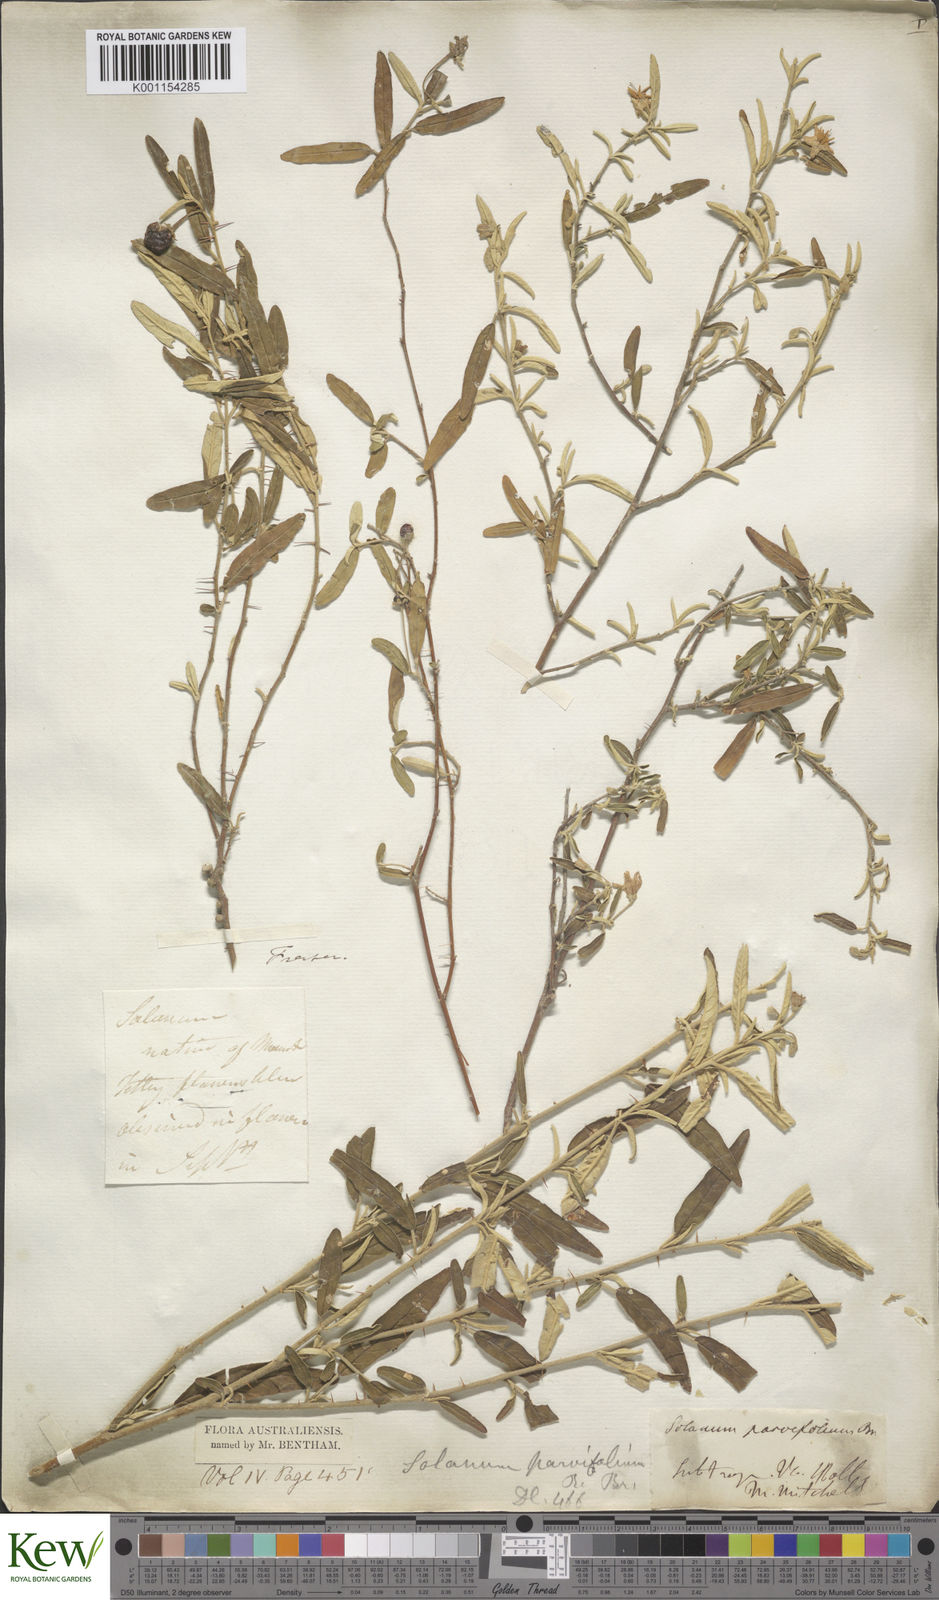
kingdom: Plantae
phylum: Tracheophyta
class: Magnoliopsida
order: Solanales
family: Solanaceae
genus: Solanum
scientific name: Solanum parvifolium
